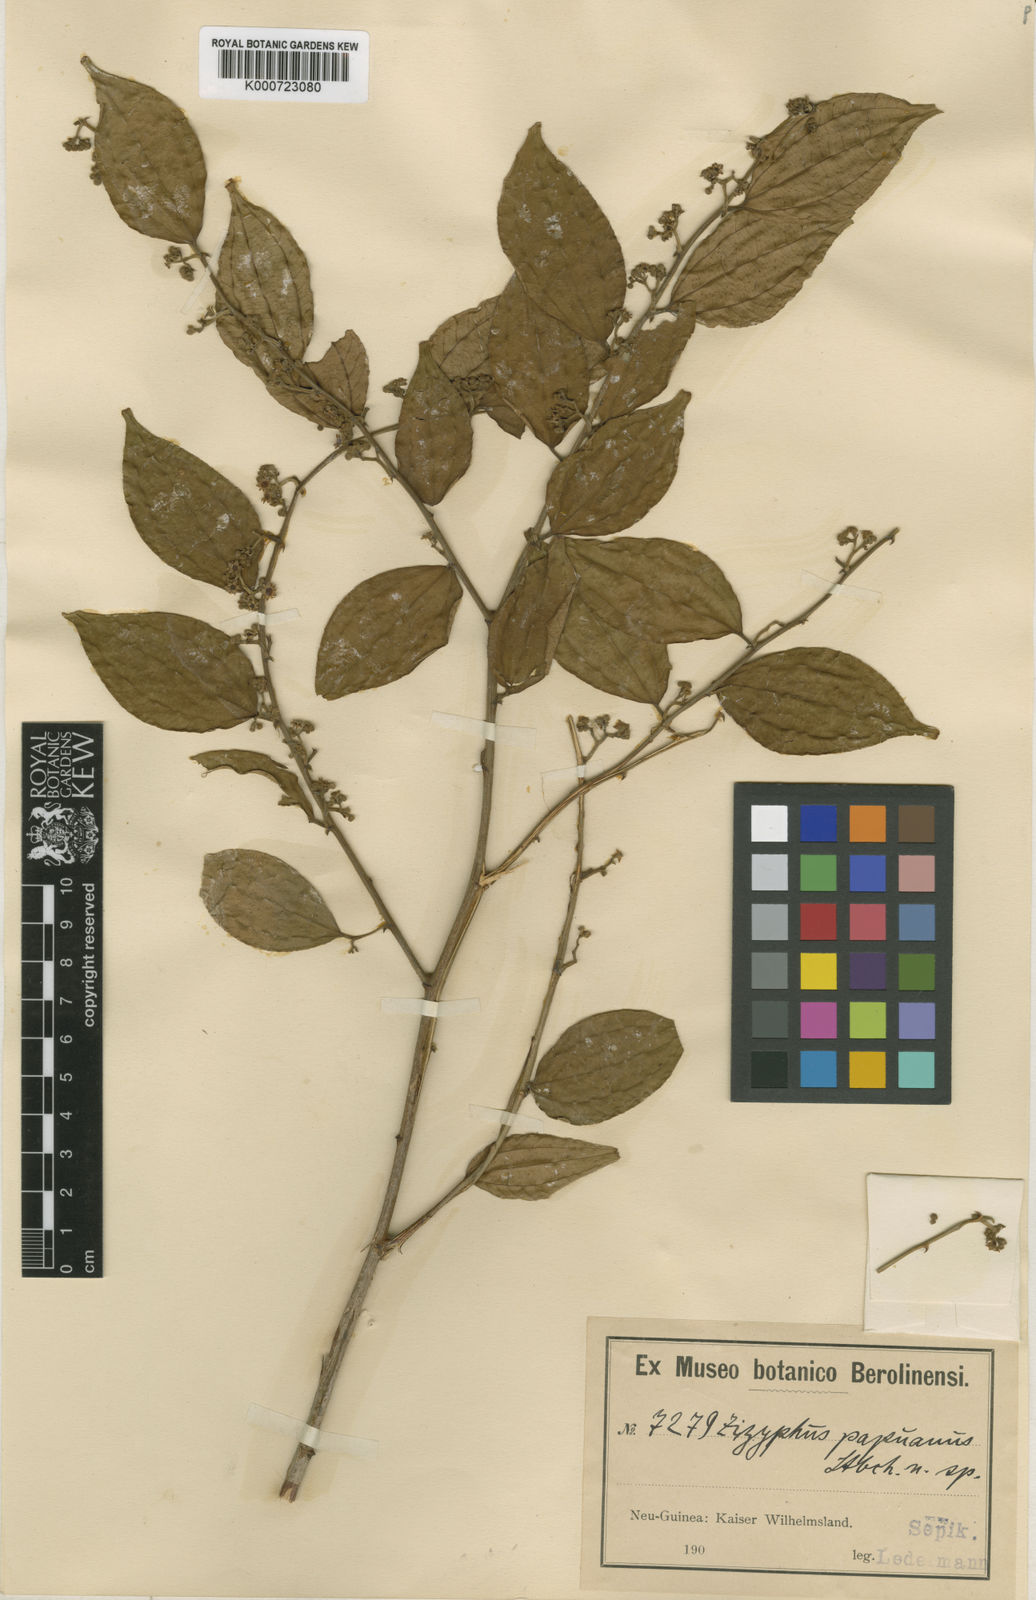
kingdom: Plantae
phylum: Tracheophyta
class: Magnoliopsida
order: Rosales
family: Rhamnaceae
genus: Ziziphus
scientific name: Ziziphus papuana
